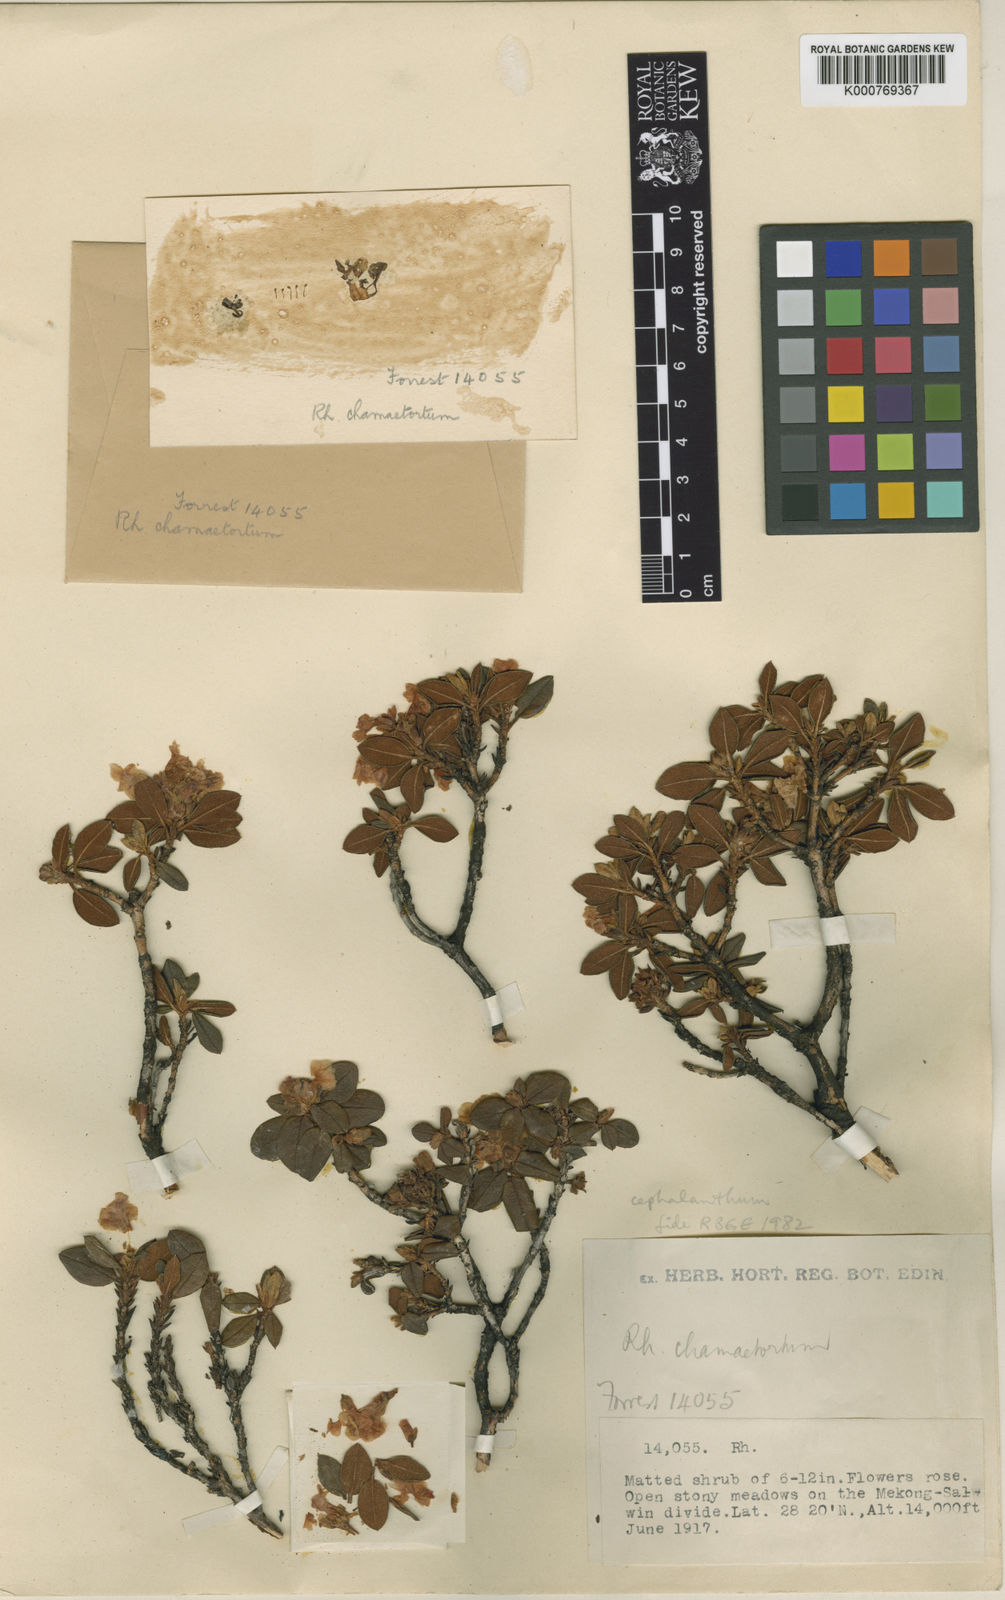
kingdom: Plantae
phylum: Tracheophyta
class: Magnoliopsida
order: Ericales
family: Ericaceae
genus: Rhododendron
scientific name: Rhododendron cephalanthum
